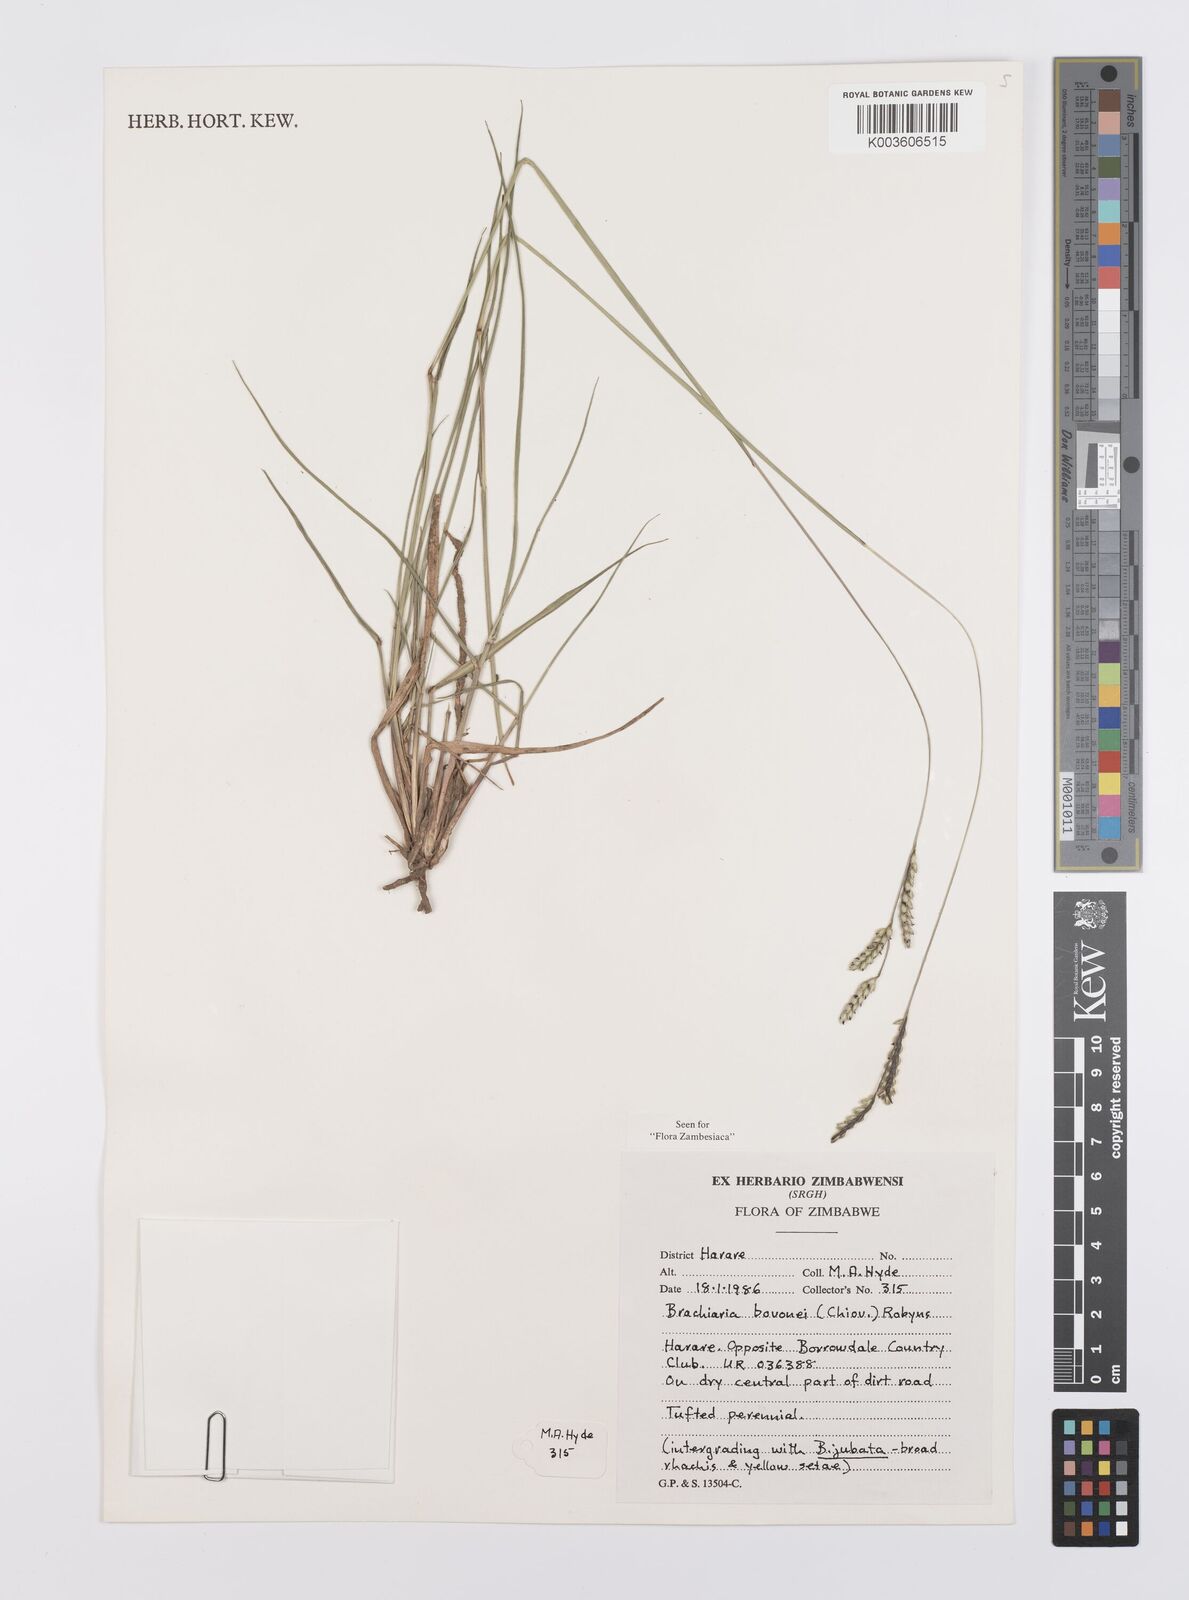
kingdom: Plantae
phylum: Tracheophyta
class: Liliopsida
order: Poales
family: Poaceae
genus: Urochloa
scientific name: Urochloa bovonei
